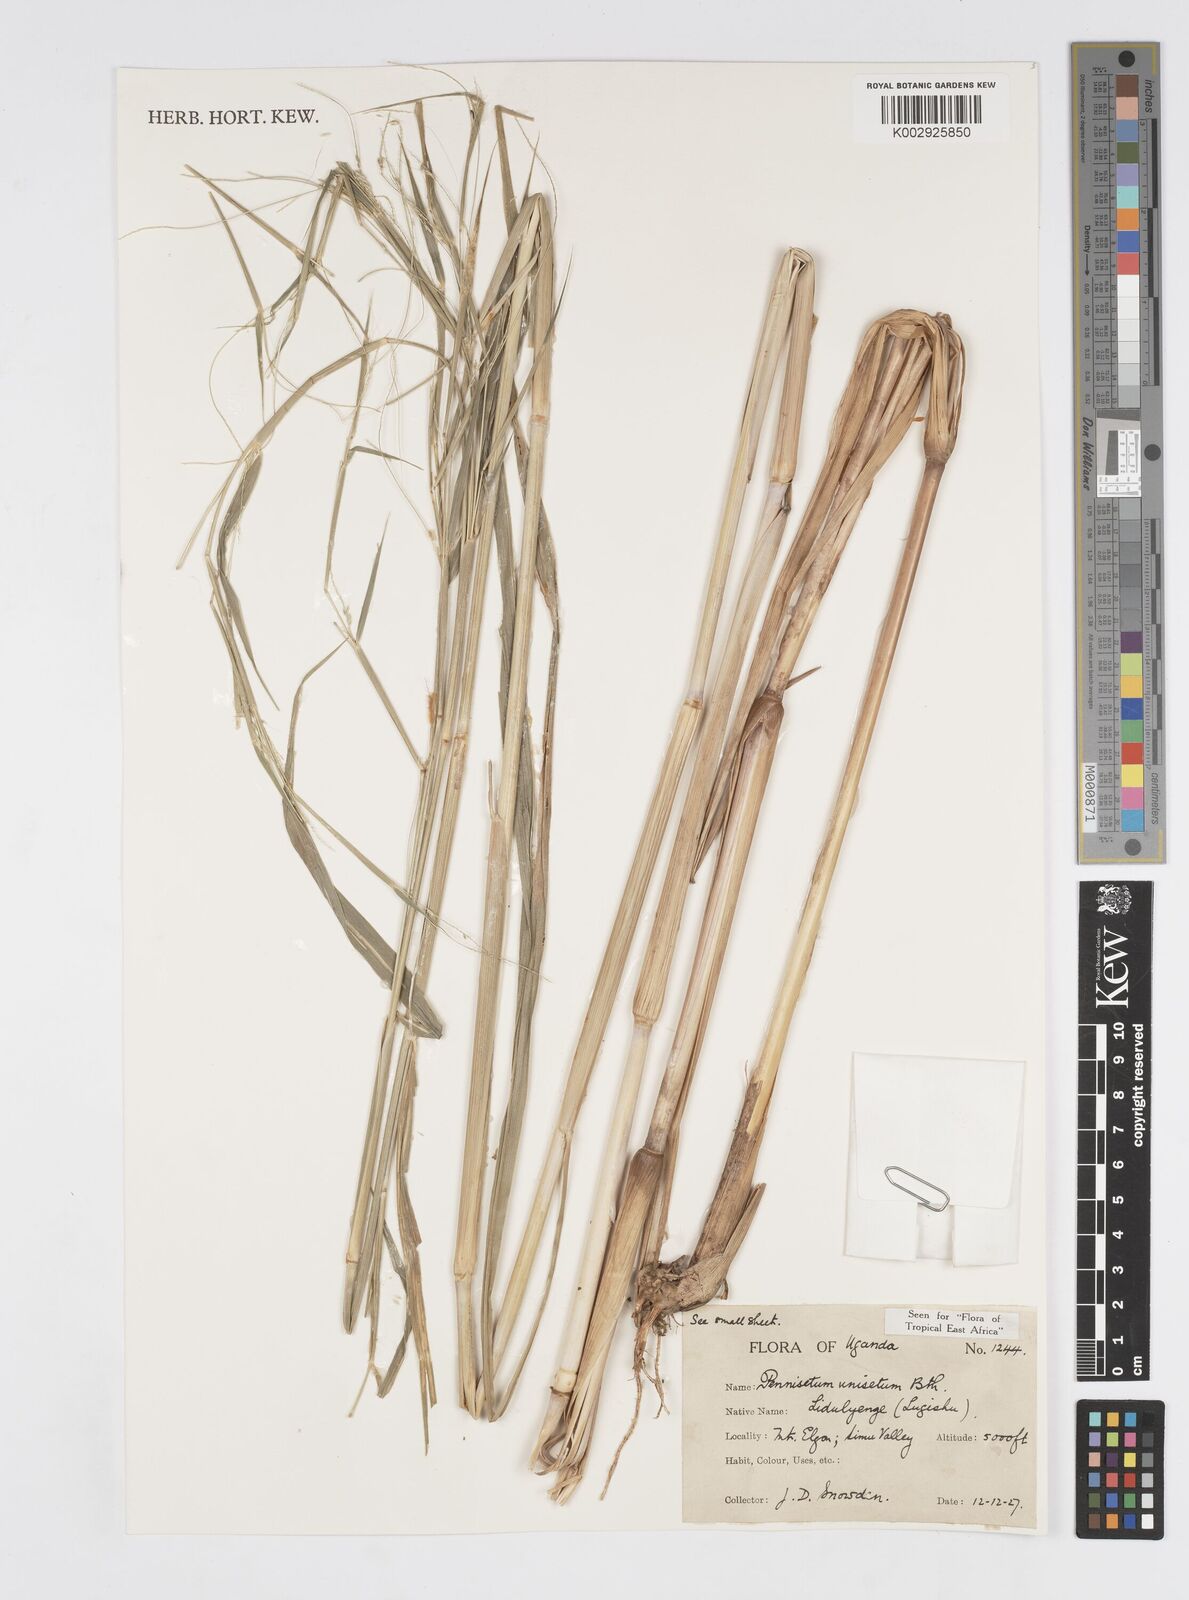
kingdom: Plantae
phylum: Tracheophyta
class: Liliopsida
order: Poales
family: Poaceae
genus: Cenchrus
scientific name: Cenchrus unisetus
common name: Natal grass
